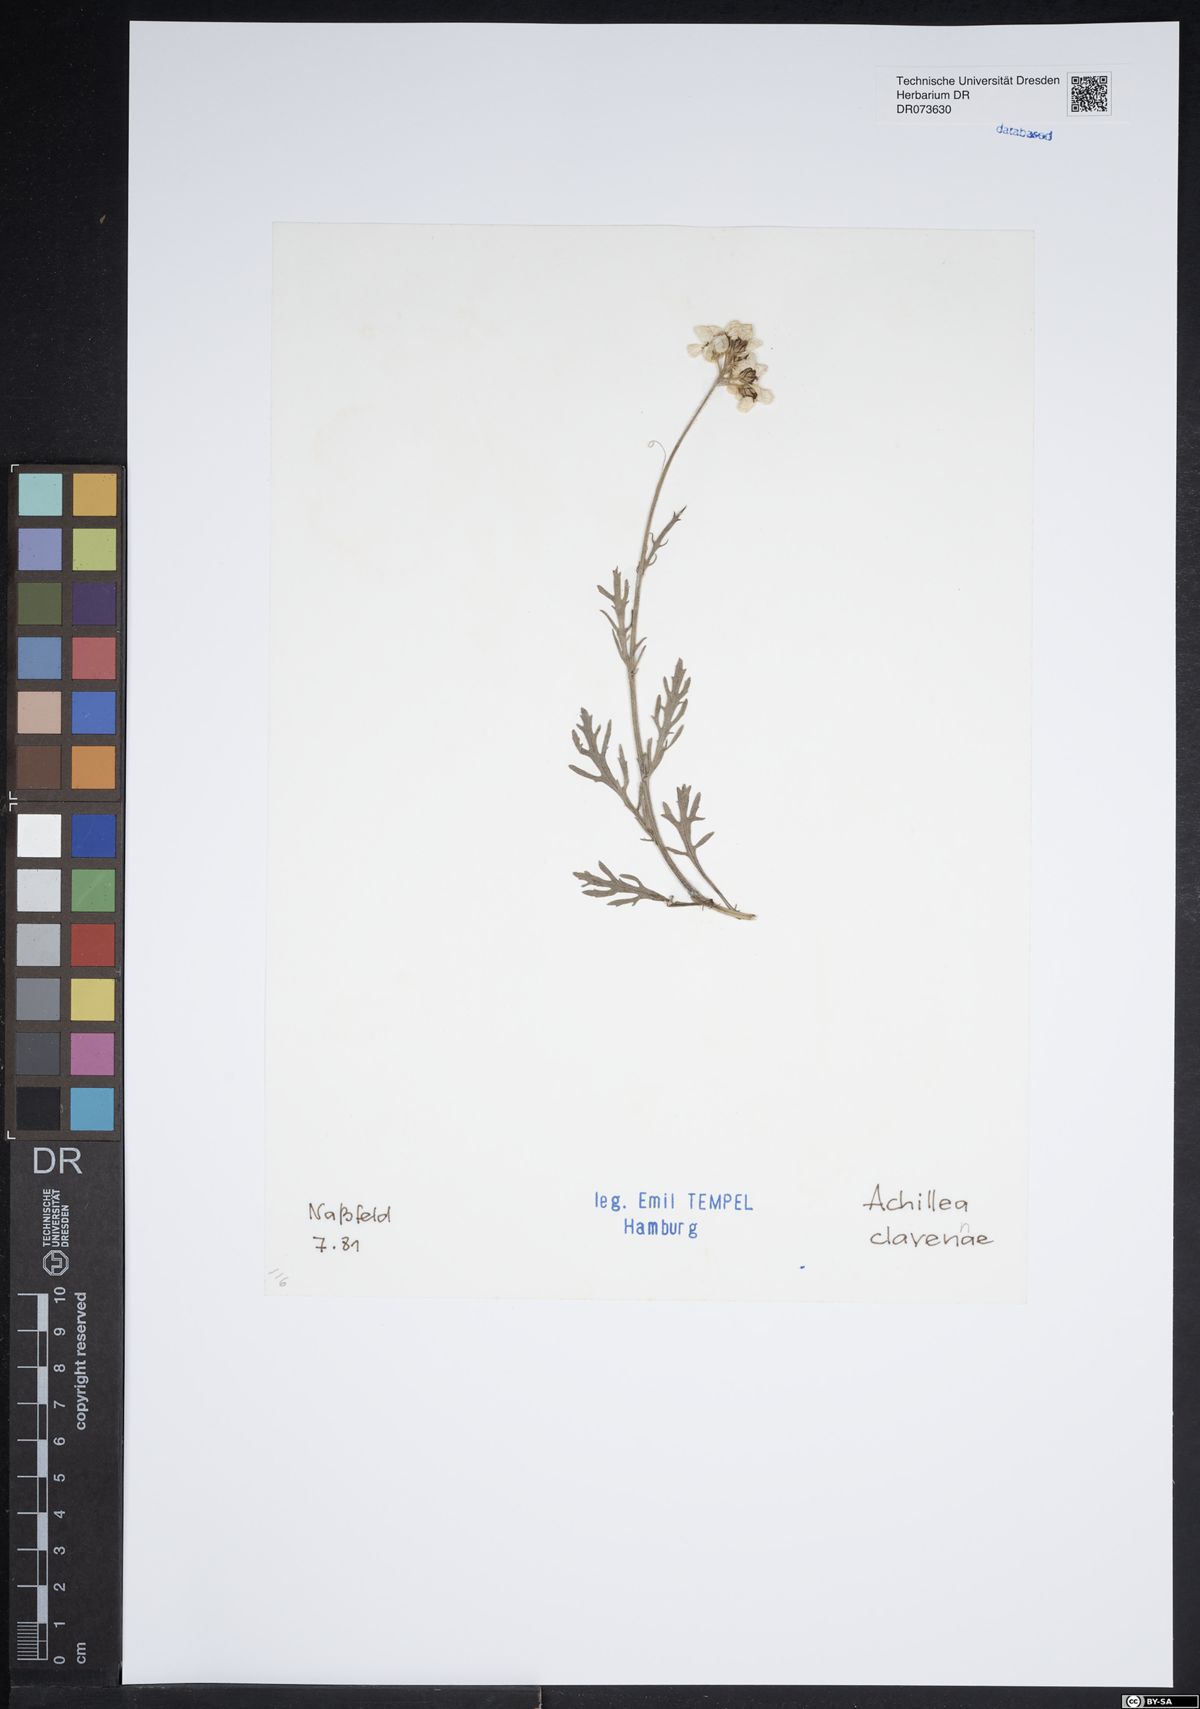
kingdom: Plantae
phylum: Tracheophyta
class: Magnoliopsida
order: Asterales
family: Asteraceae
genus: Achillea
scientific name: Achillea clavennae
